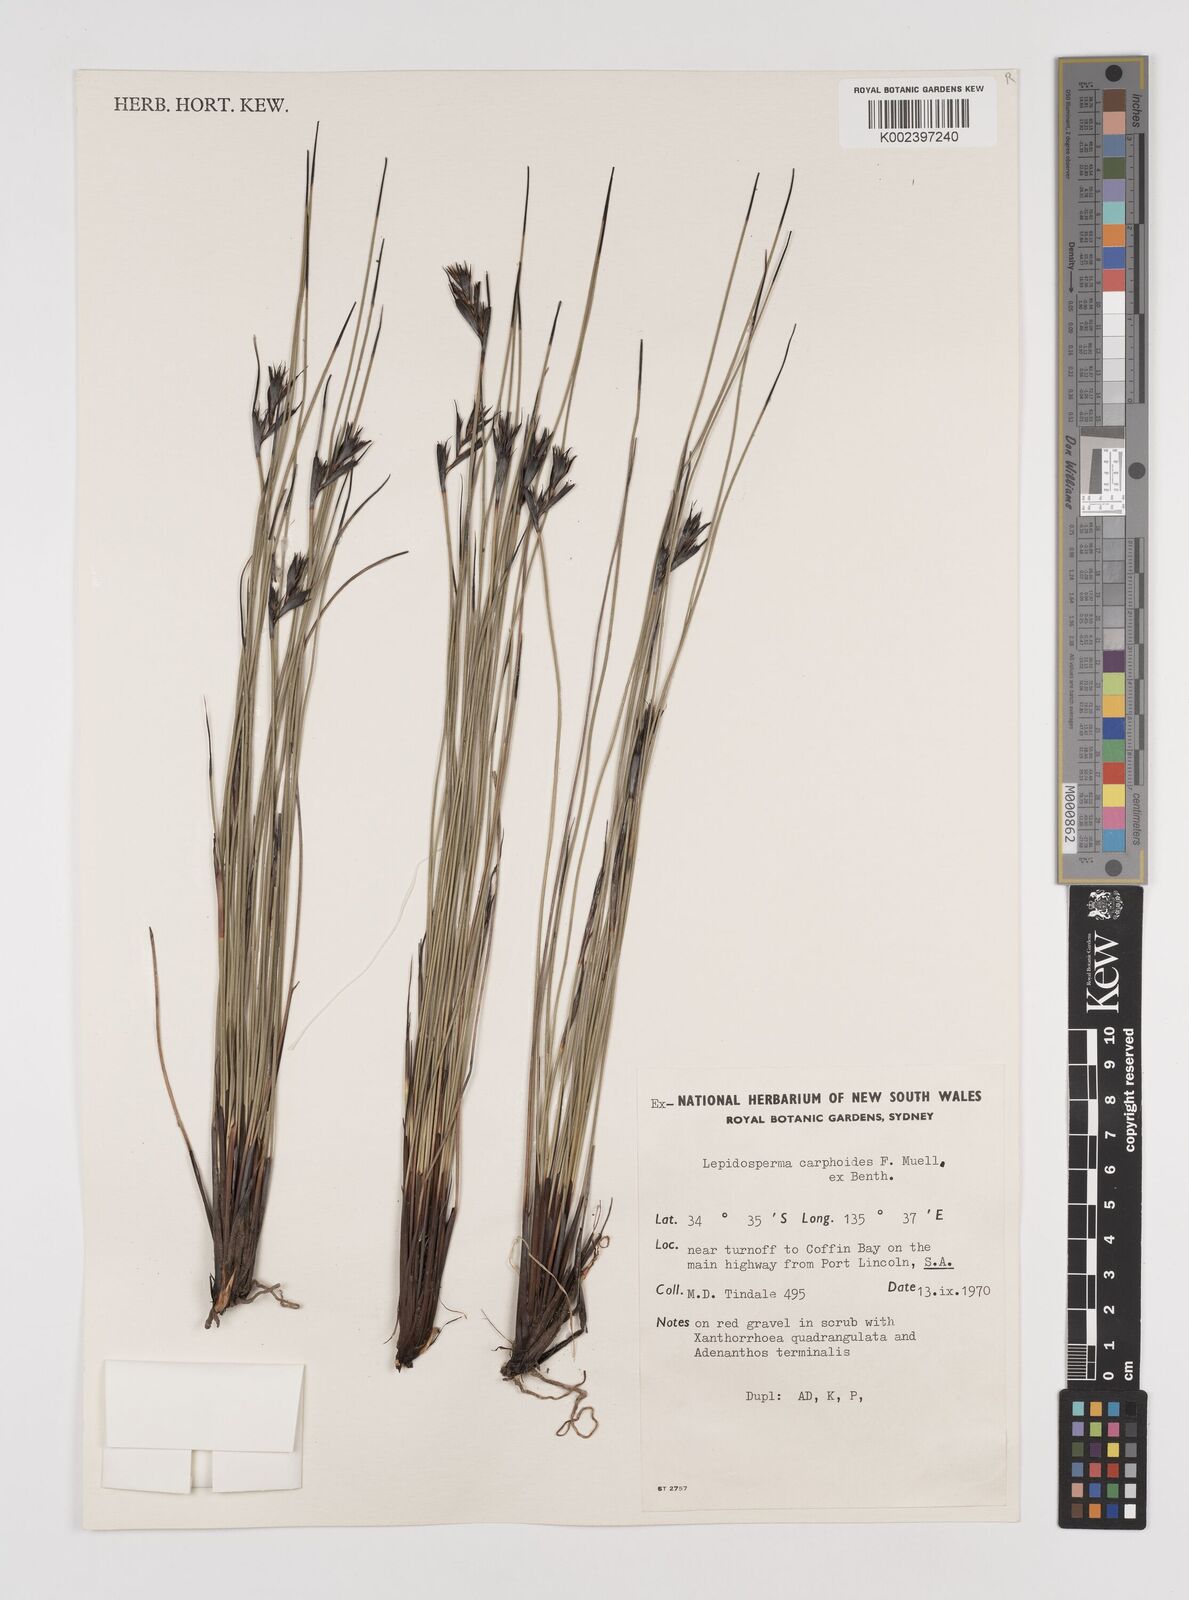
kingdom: Plantae
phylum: Tracheophyta
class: Liliopsida
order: Poales
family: Cyperaceae
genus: Lepidosperma
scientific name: Lepidosperma carphoides
